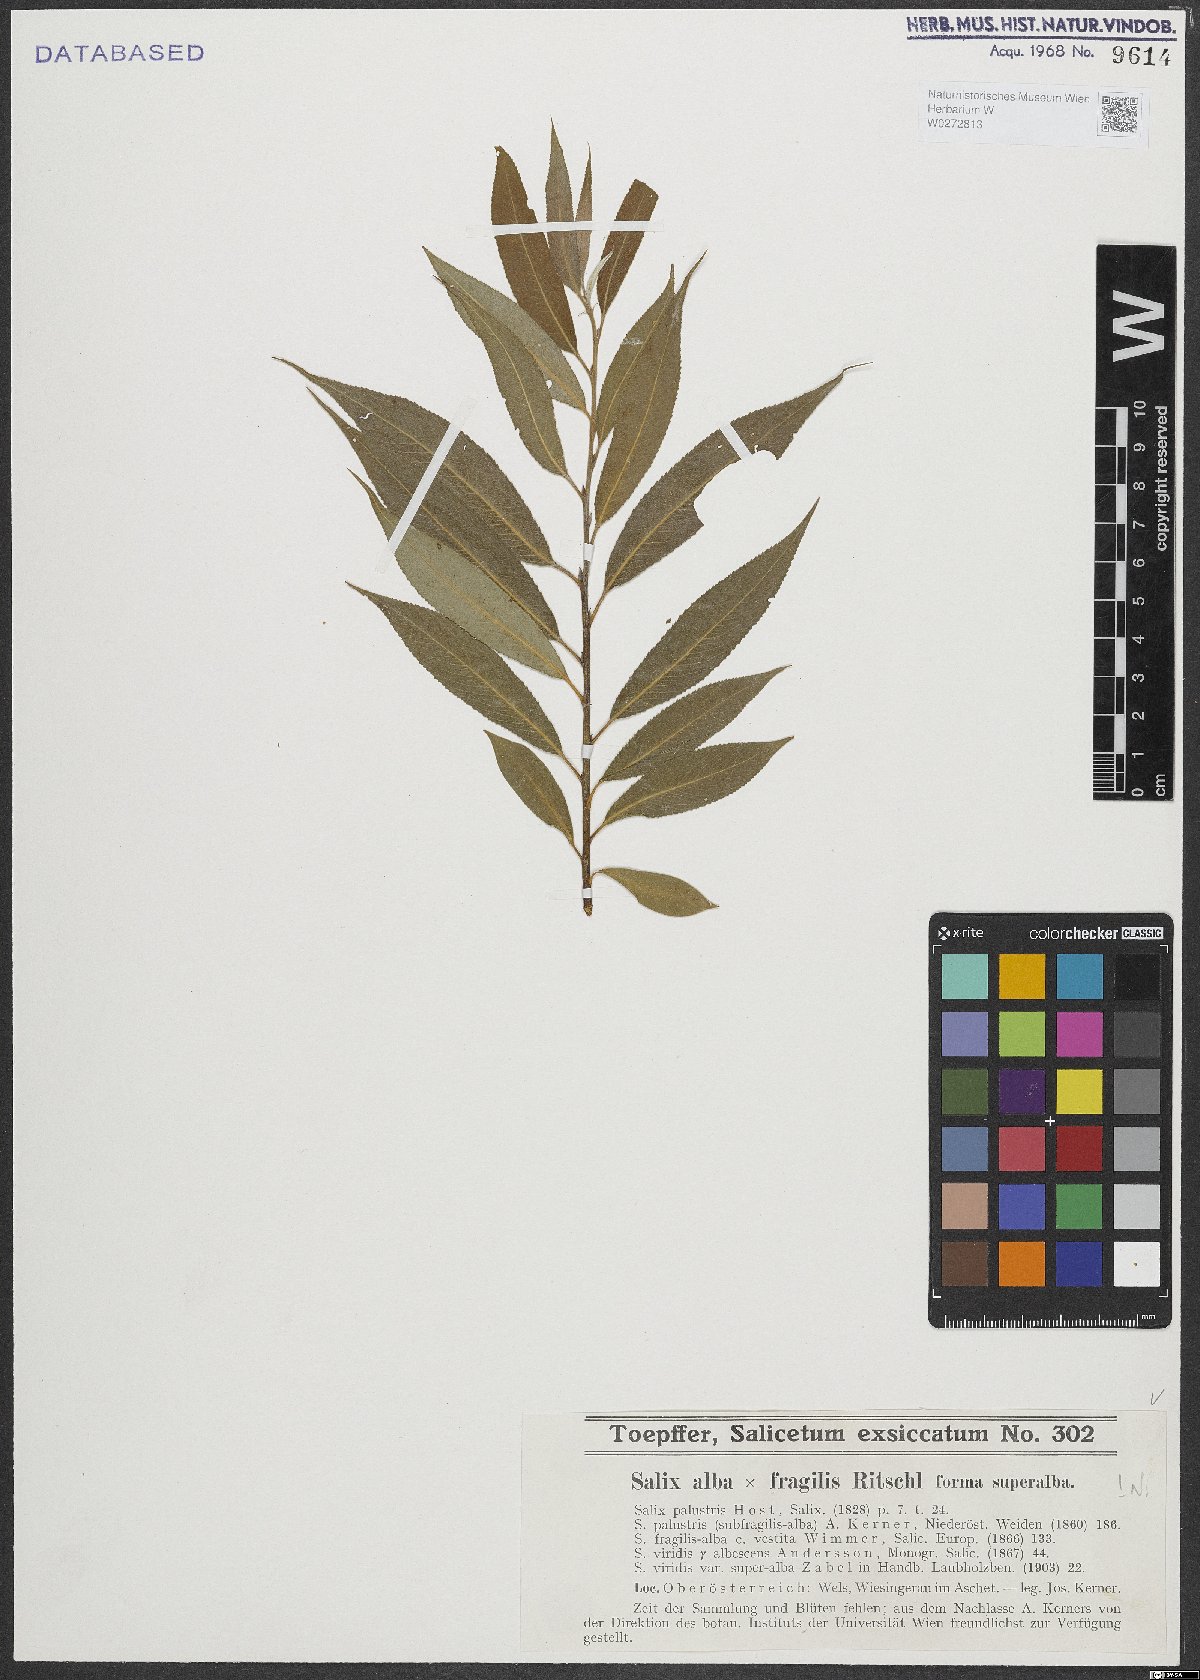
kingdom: Plantae
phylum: Tracheophyta
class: Magnoliopsida
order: Malpighiales
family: Salicaceae
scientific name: Salicaceae
